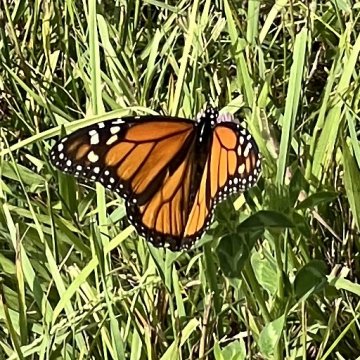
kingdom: Animalia
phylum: Arthropoda
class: Insecta
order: Lepidoptera
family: Nymphalidae
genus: Danaus
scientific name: Danaus plexippus
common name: Monarch
